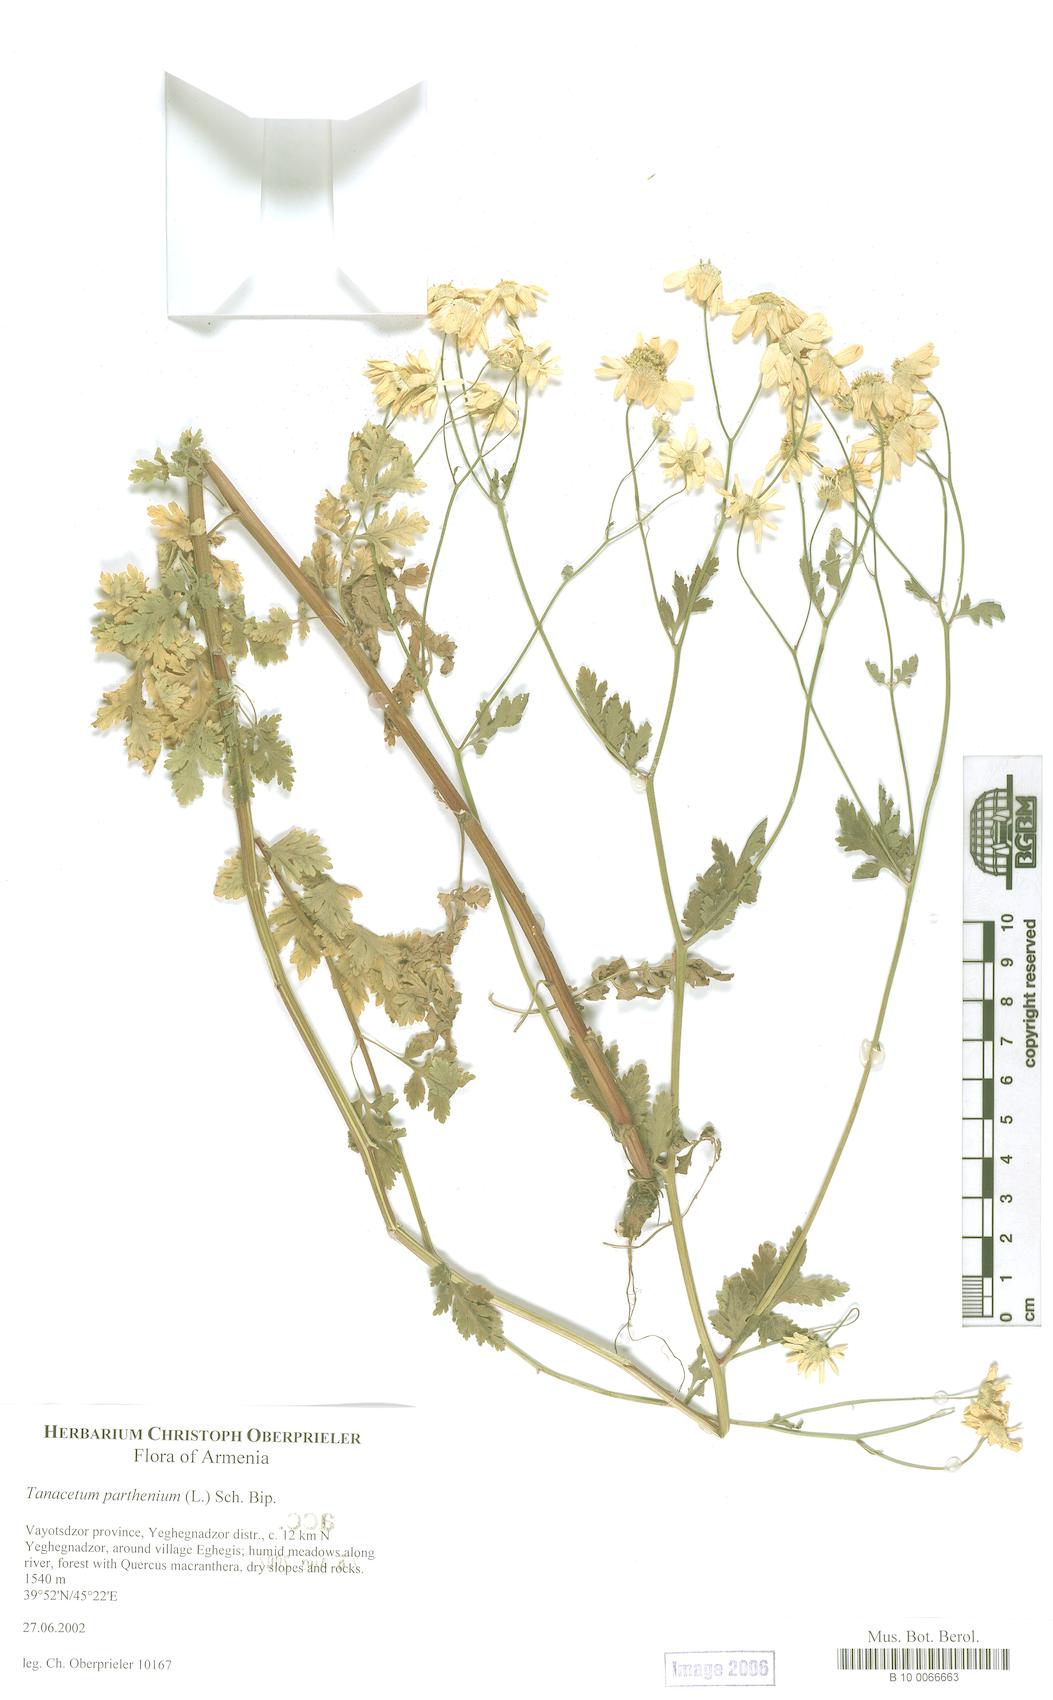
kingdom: Plantae
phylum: Tracheophyta
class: Magnoliopsida
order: Asterales
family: Asteraceae
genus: Tanacetum
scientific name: Tanacetum parthenium
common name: Feverfew
